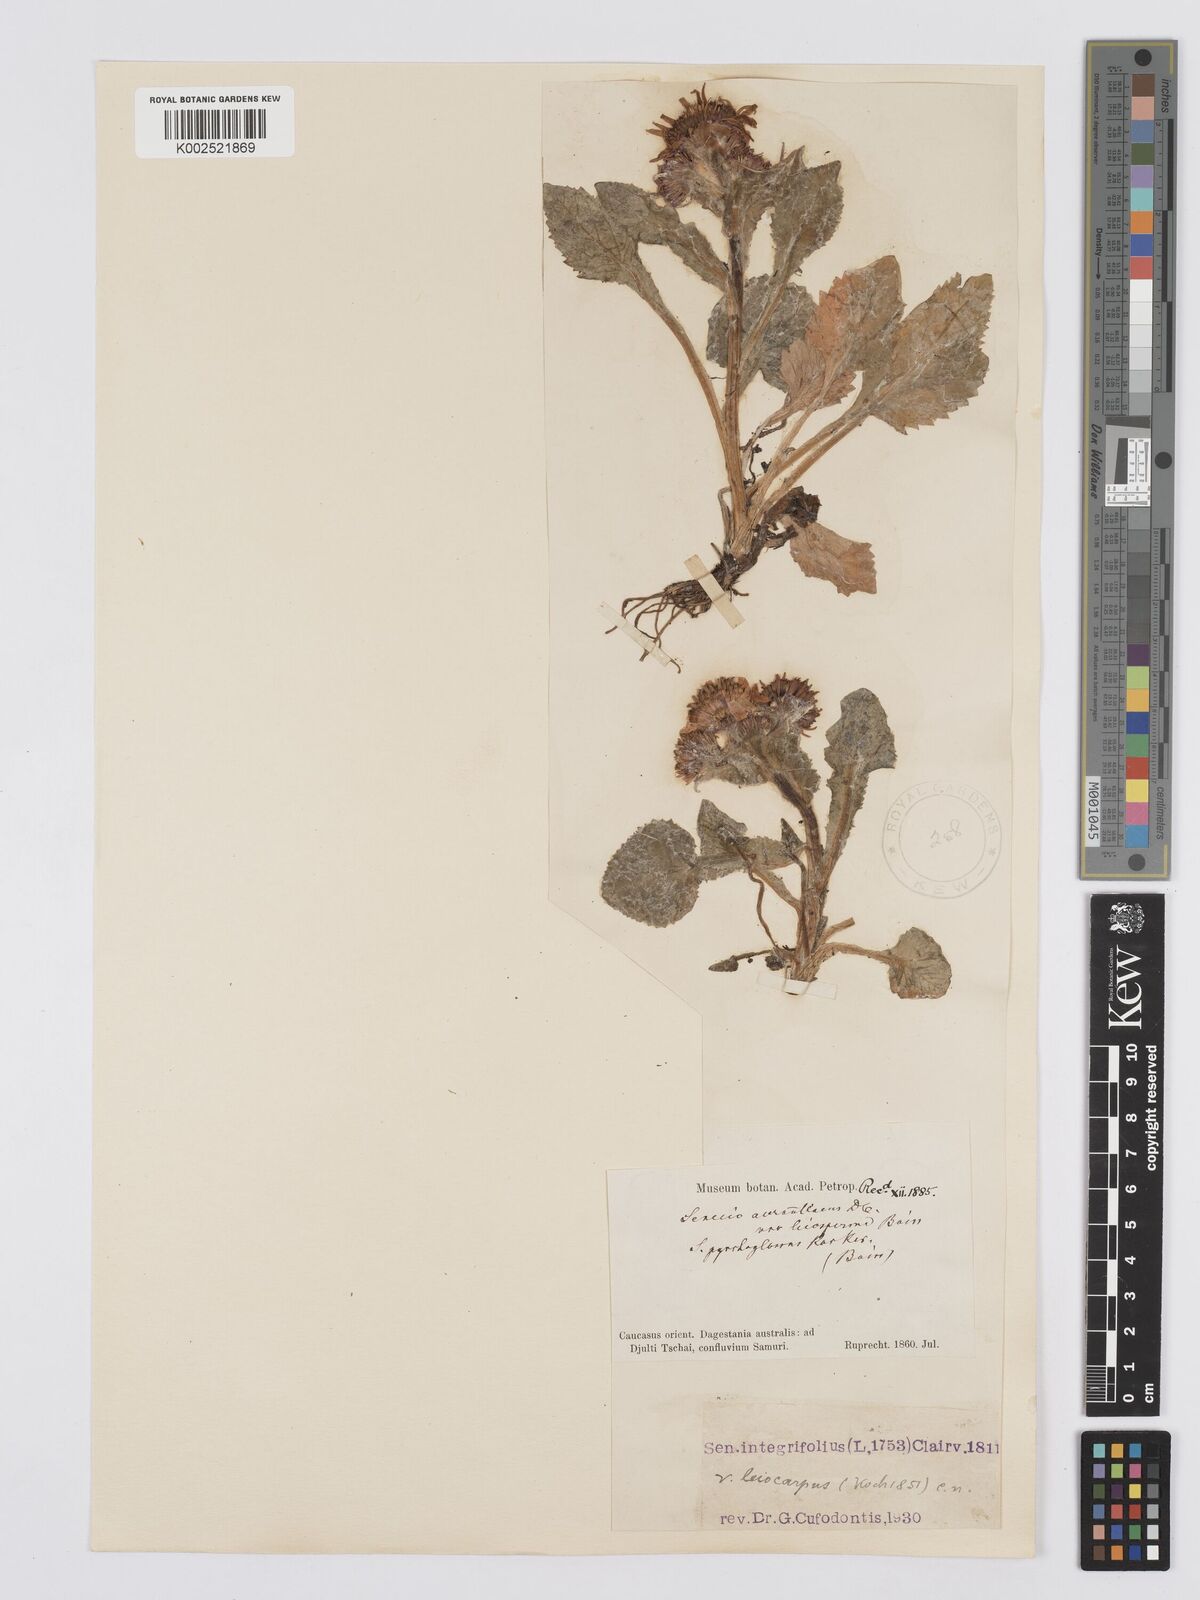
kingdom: Plantae
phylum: Tracheophyta
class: Magnoliopsida
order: Asterales
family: Asteraceae
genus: Tephroseris
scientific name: Tephroseris integrifolia
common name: Field fleawort
